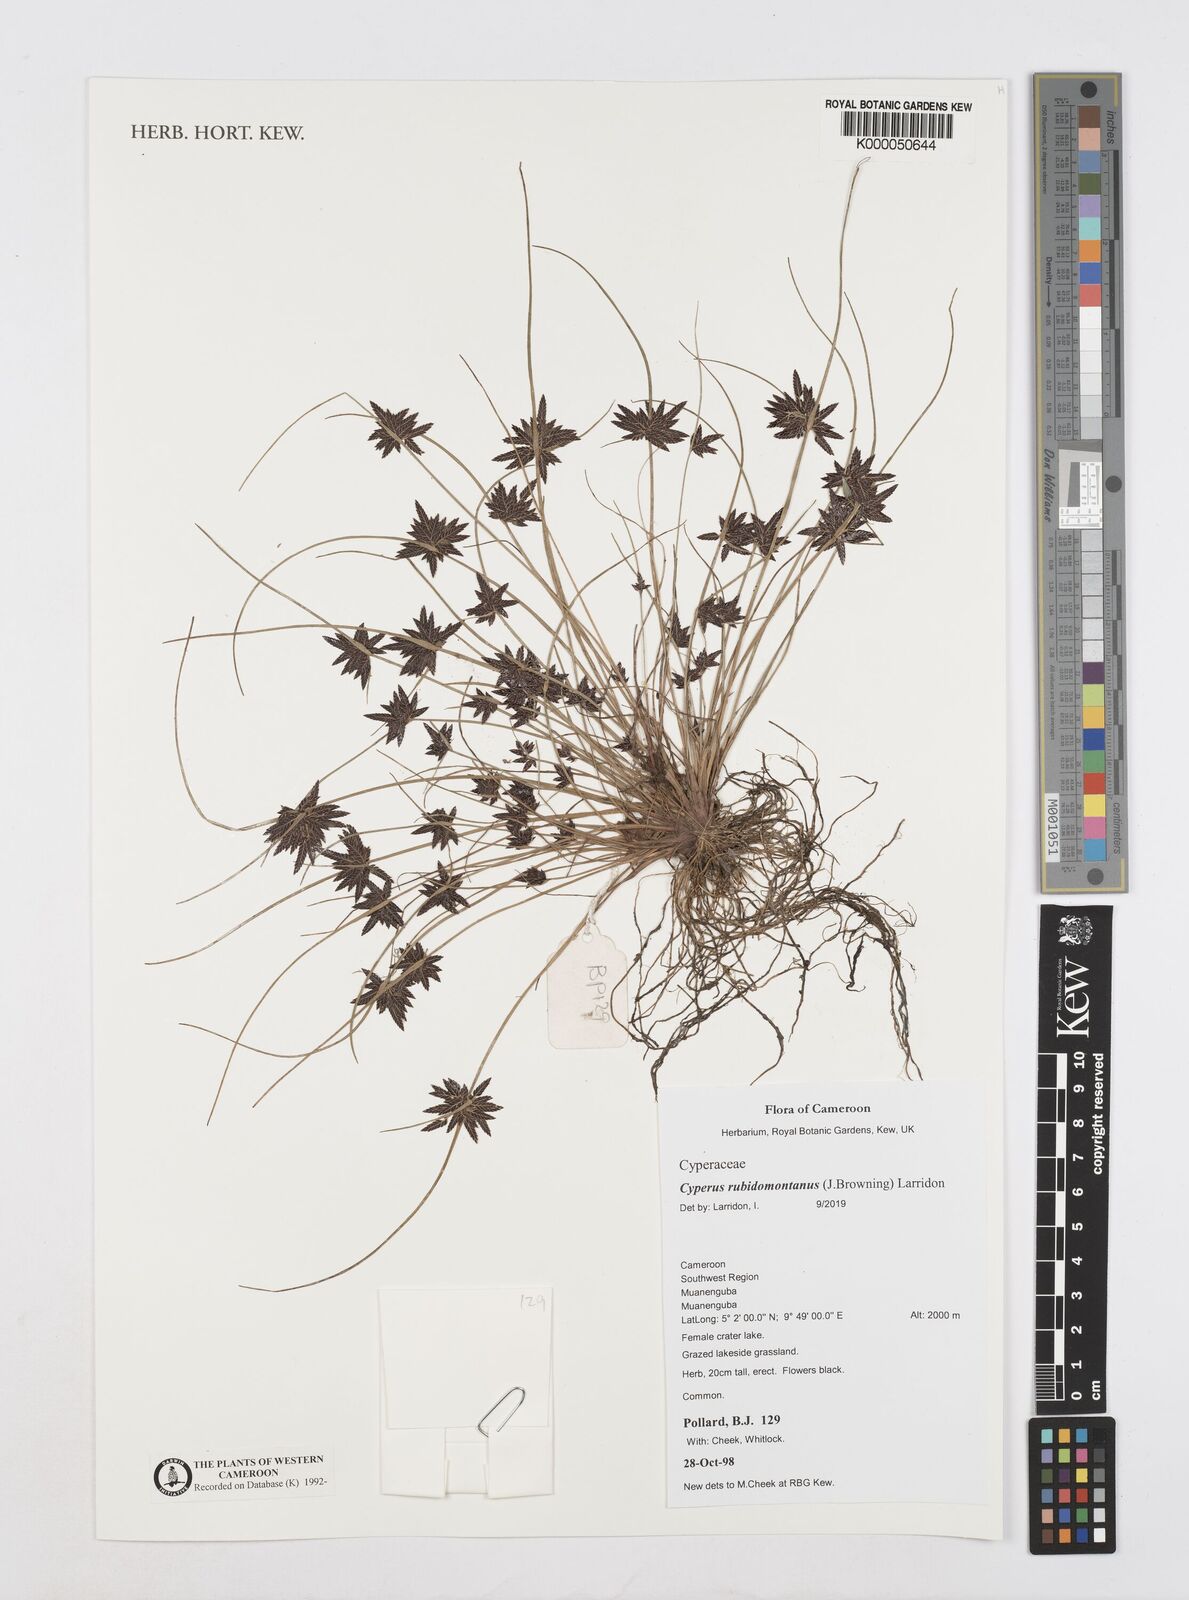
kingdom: Plantae
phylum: Tracheophyta
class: Liliopsida
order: Poales
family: Cyperaceae
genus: Cyperus
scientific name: Cyperus atrorubidus
